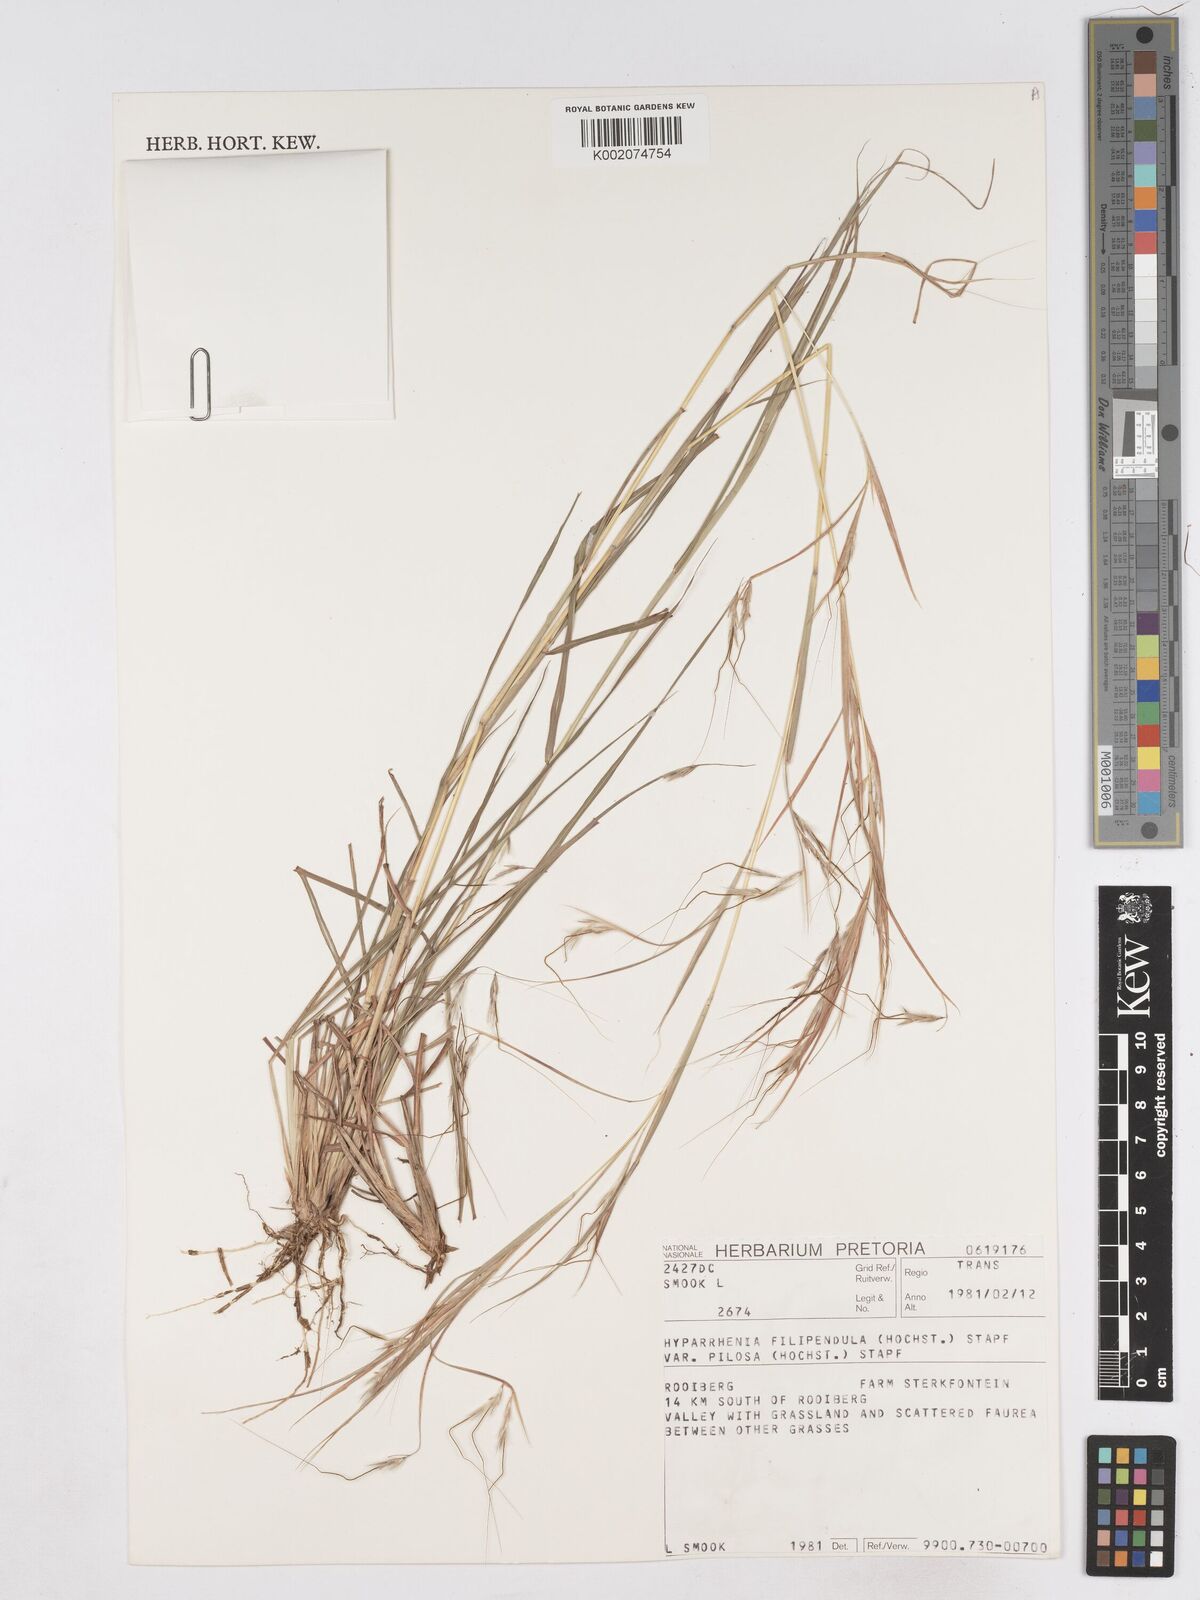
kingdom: Plantae
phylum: Tracheophyta
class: Liliopsida
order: Poales
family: Poaceae
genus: Hyparrhenia
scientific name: Hyparrhenia filipendula
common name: Tambookie grass
